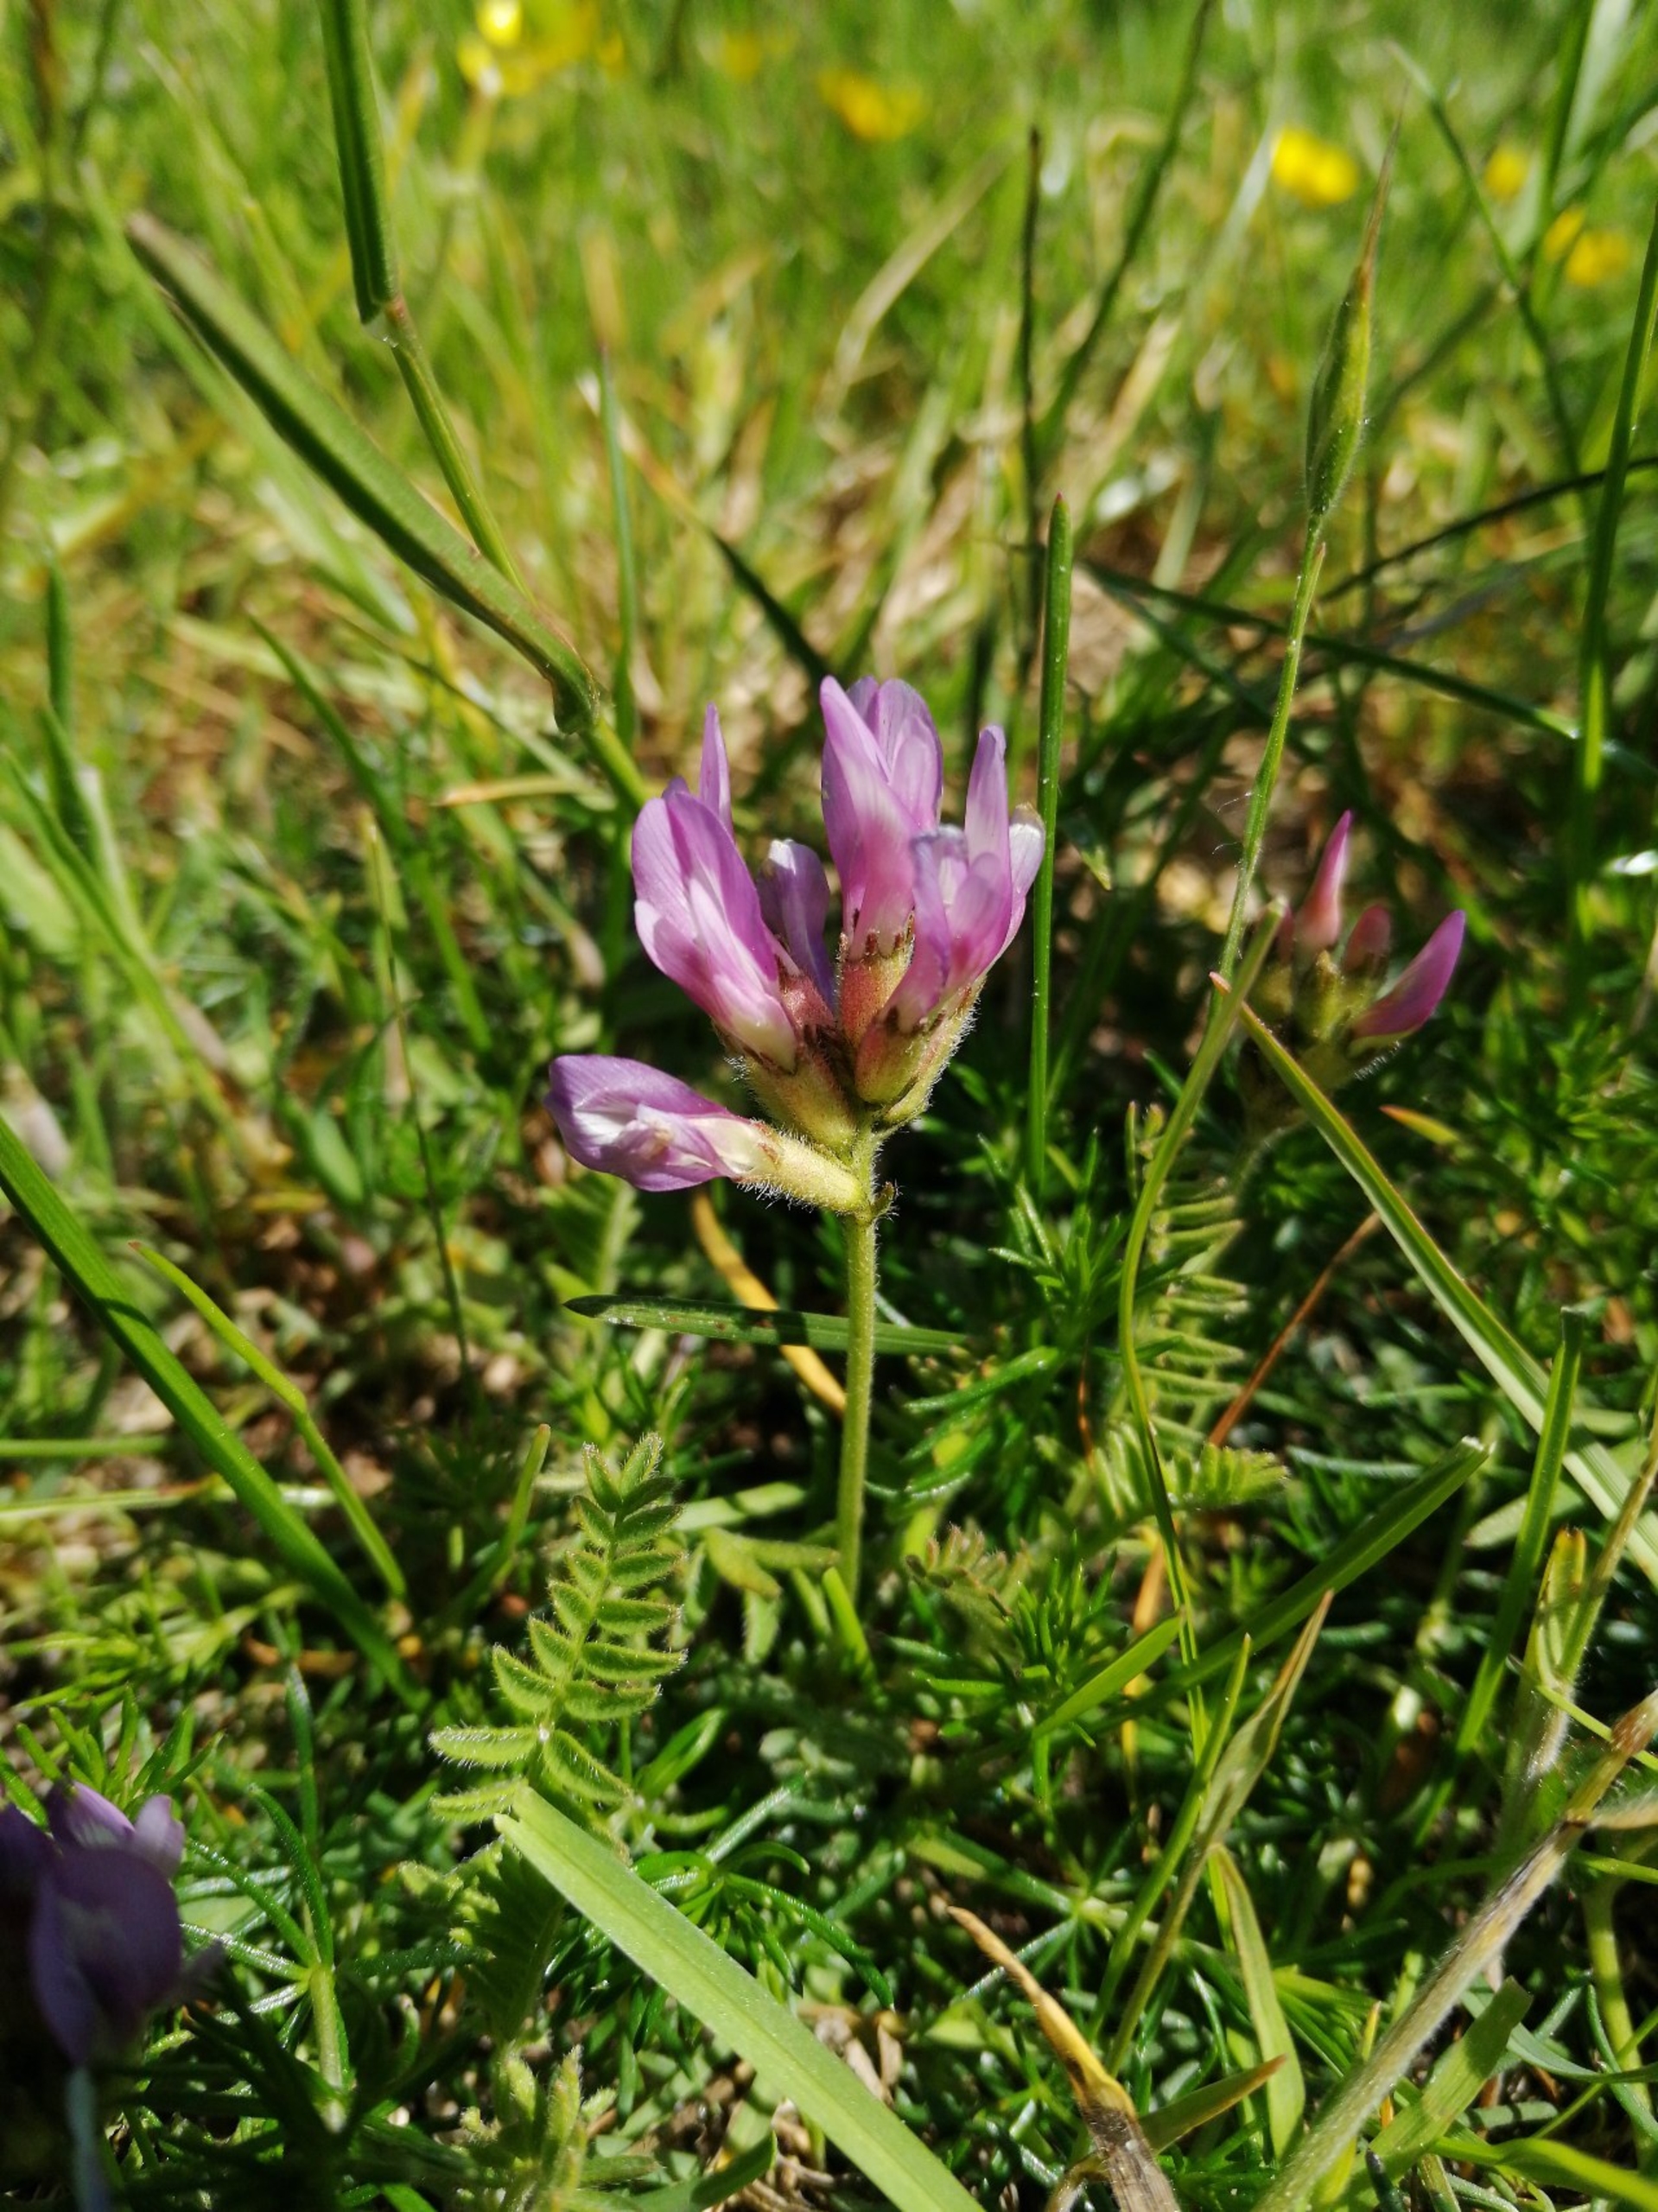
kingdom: Plantae
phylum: Tracheophyta
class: Magnoliopsida
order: Fabales
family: Fabaceae
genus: Astragalus
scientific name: Astragalus danicus
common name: Dansk astragel
